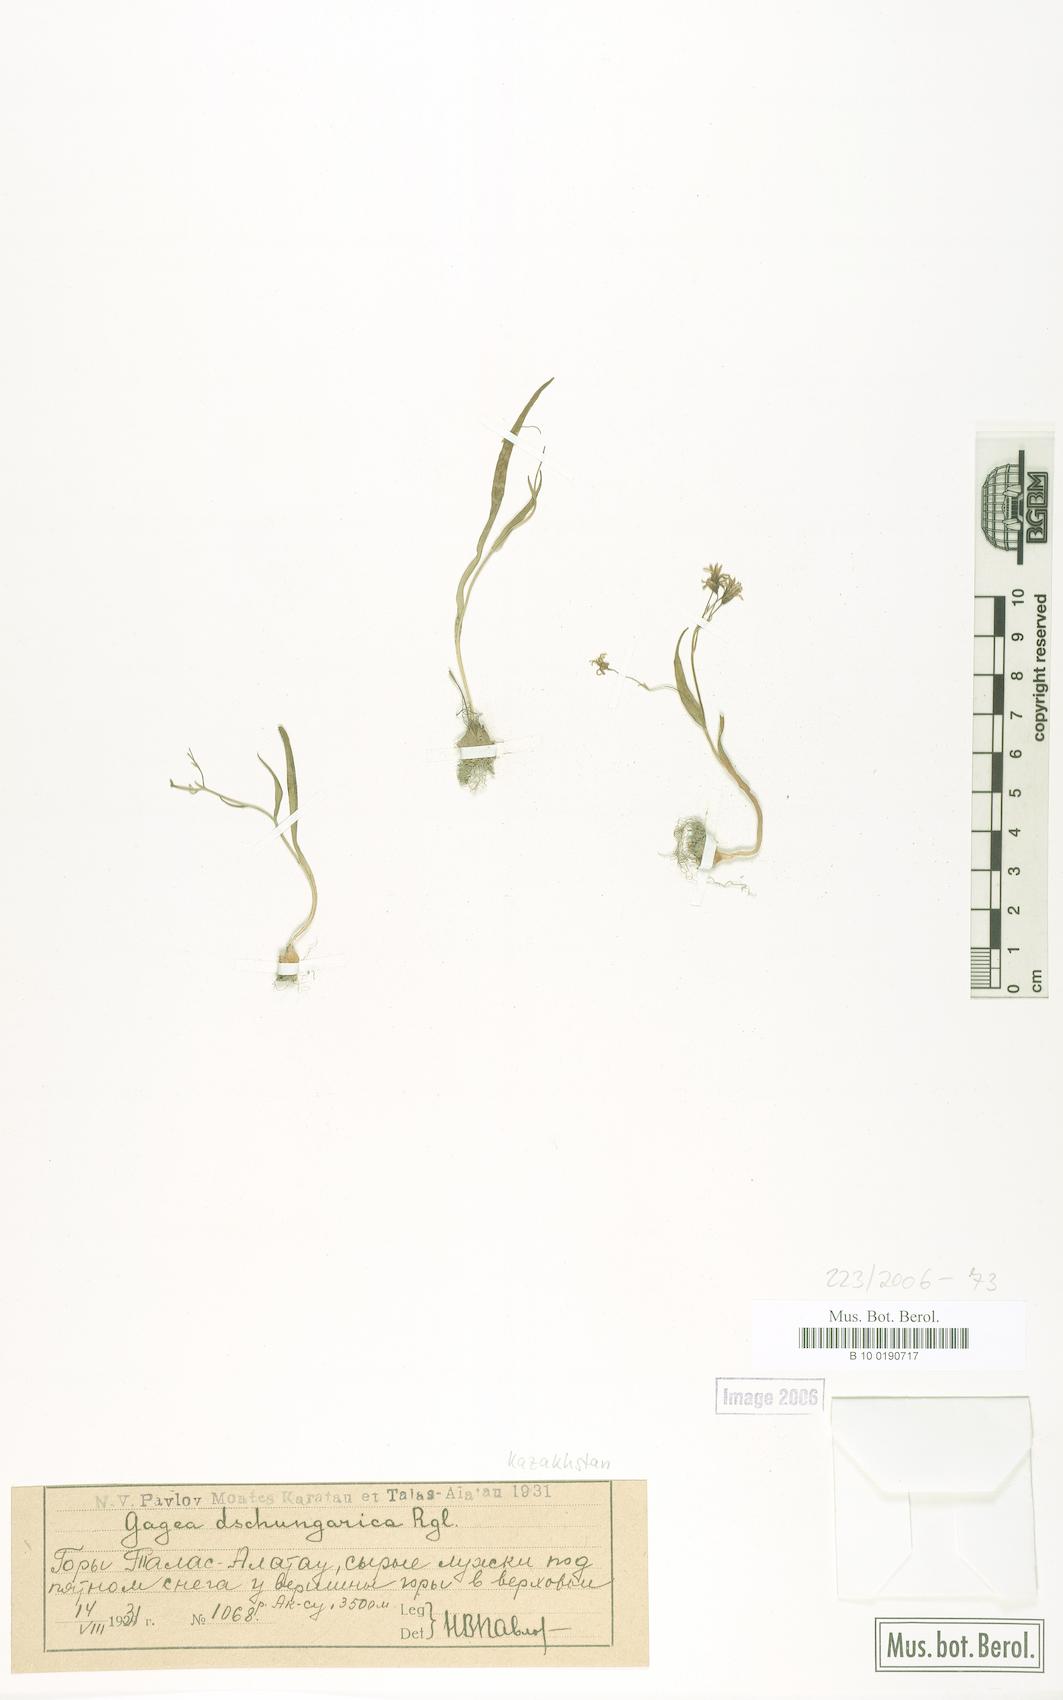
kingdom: Plantae
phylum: Tracheophyta
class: Liliopsida
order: Liliales
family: Liliaceae
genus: Gagea
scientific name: Gagea dschungarica
